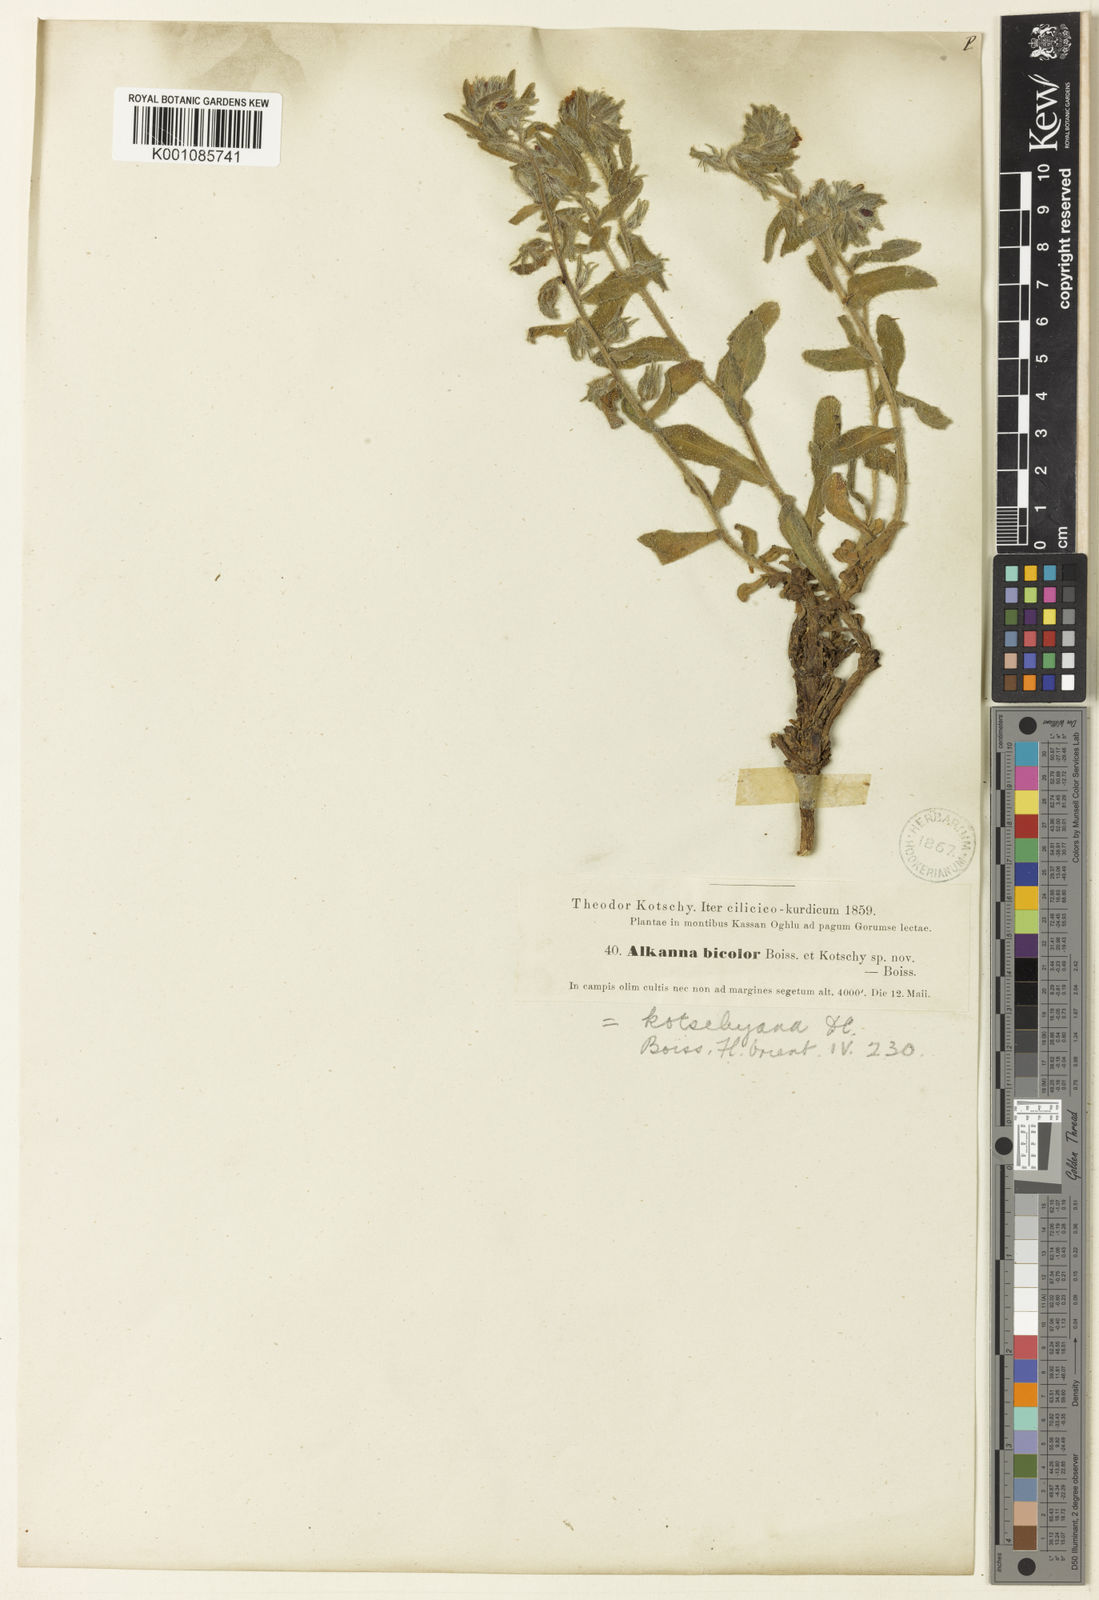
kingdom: Plantae
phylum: Tracheophyta
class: Magnoliopsida
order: Boraginales
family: Boraginaceae
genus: Alkanna
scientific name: Alkanna kotschyana
